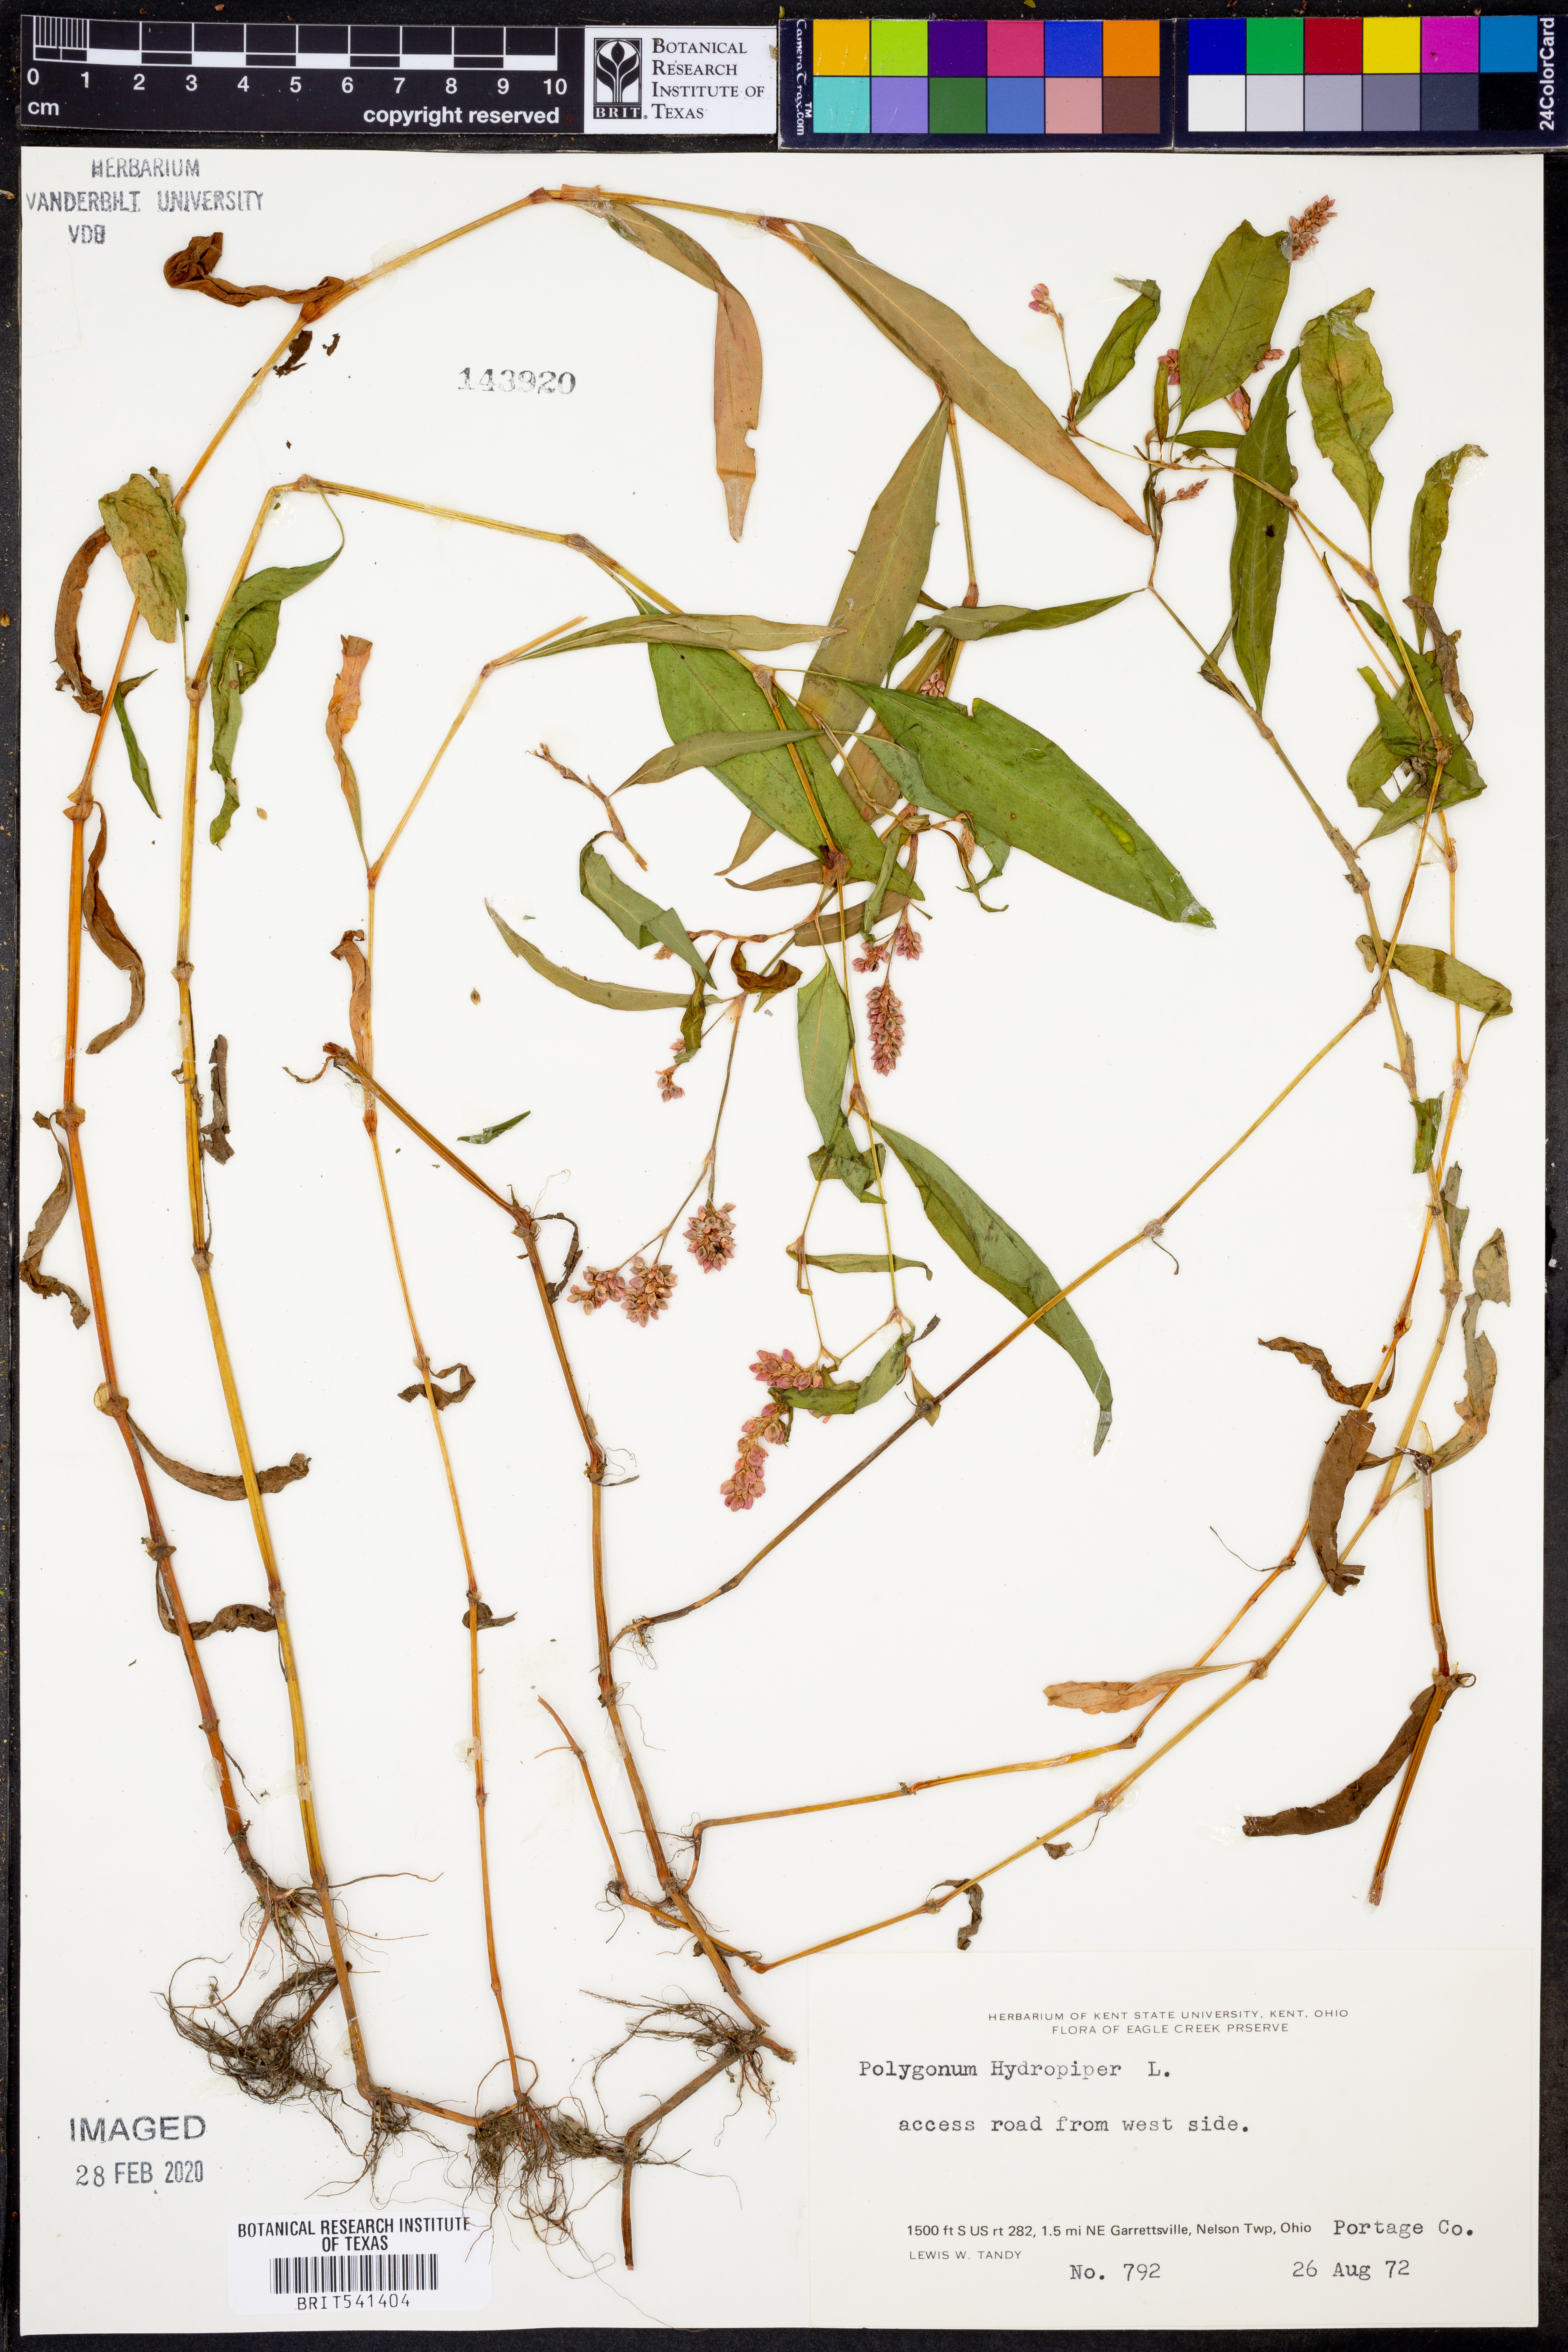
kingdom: Plantae
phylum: Tracheophyta
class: Magnoliopsida
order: Caryophyllales
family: Polygonaceae
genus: Persicaria
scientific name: Persicaria hydropiper
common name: Water-pepper
